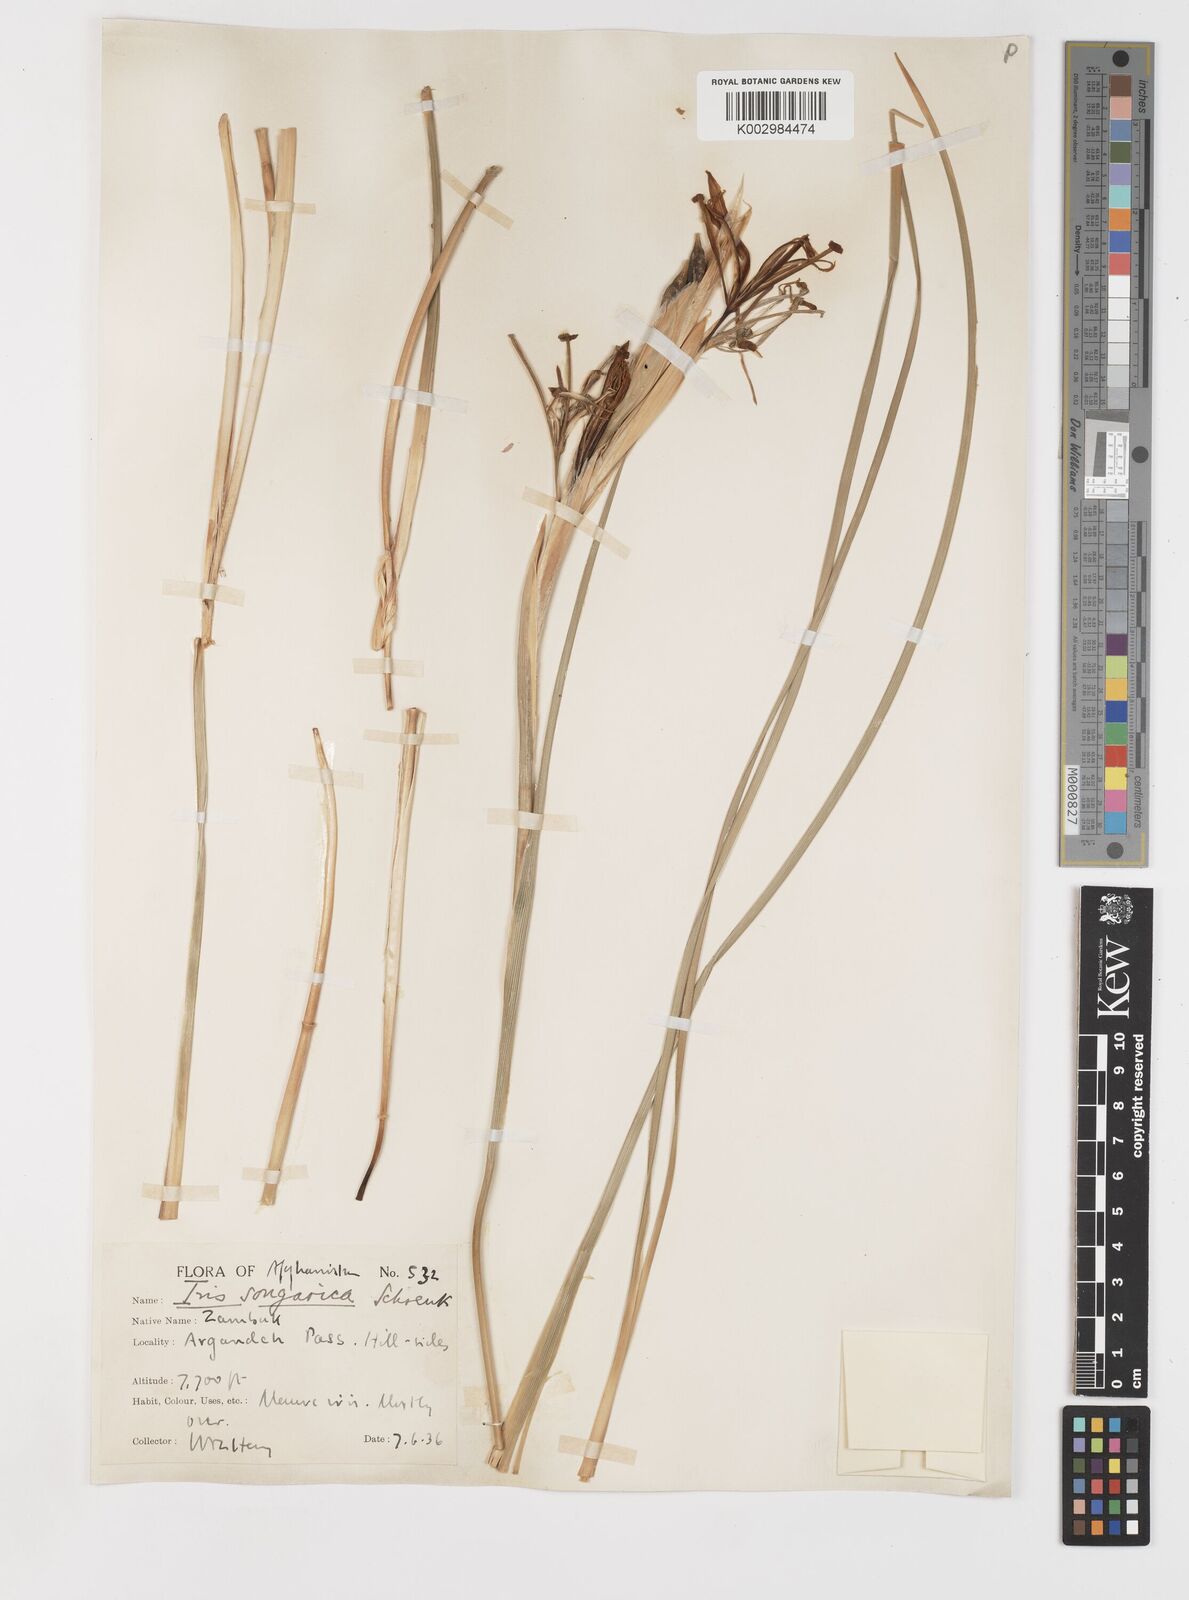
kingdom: Plantae
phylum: Tracheophyta
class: Liliopsida
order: Asparagales
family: Iridaceae
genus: Iris
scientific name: Iris songarica
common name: Songar iris
